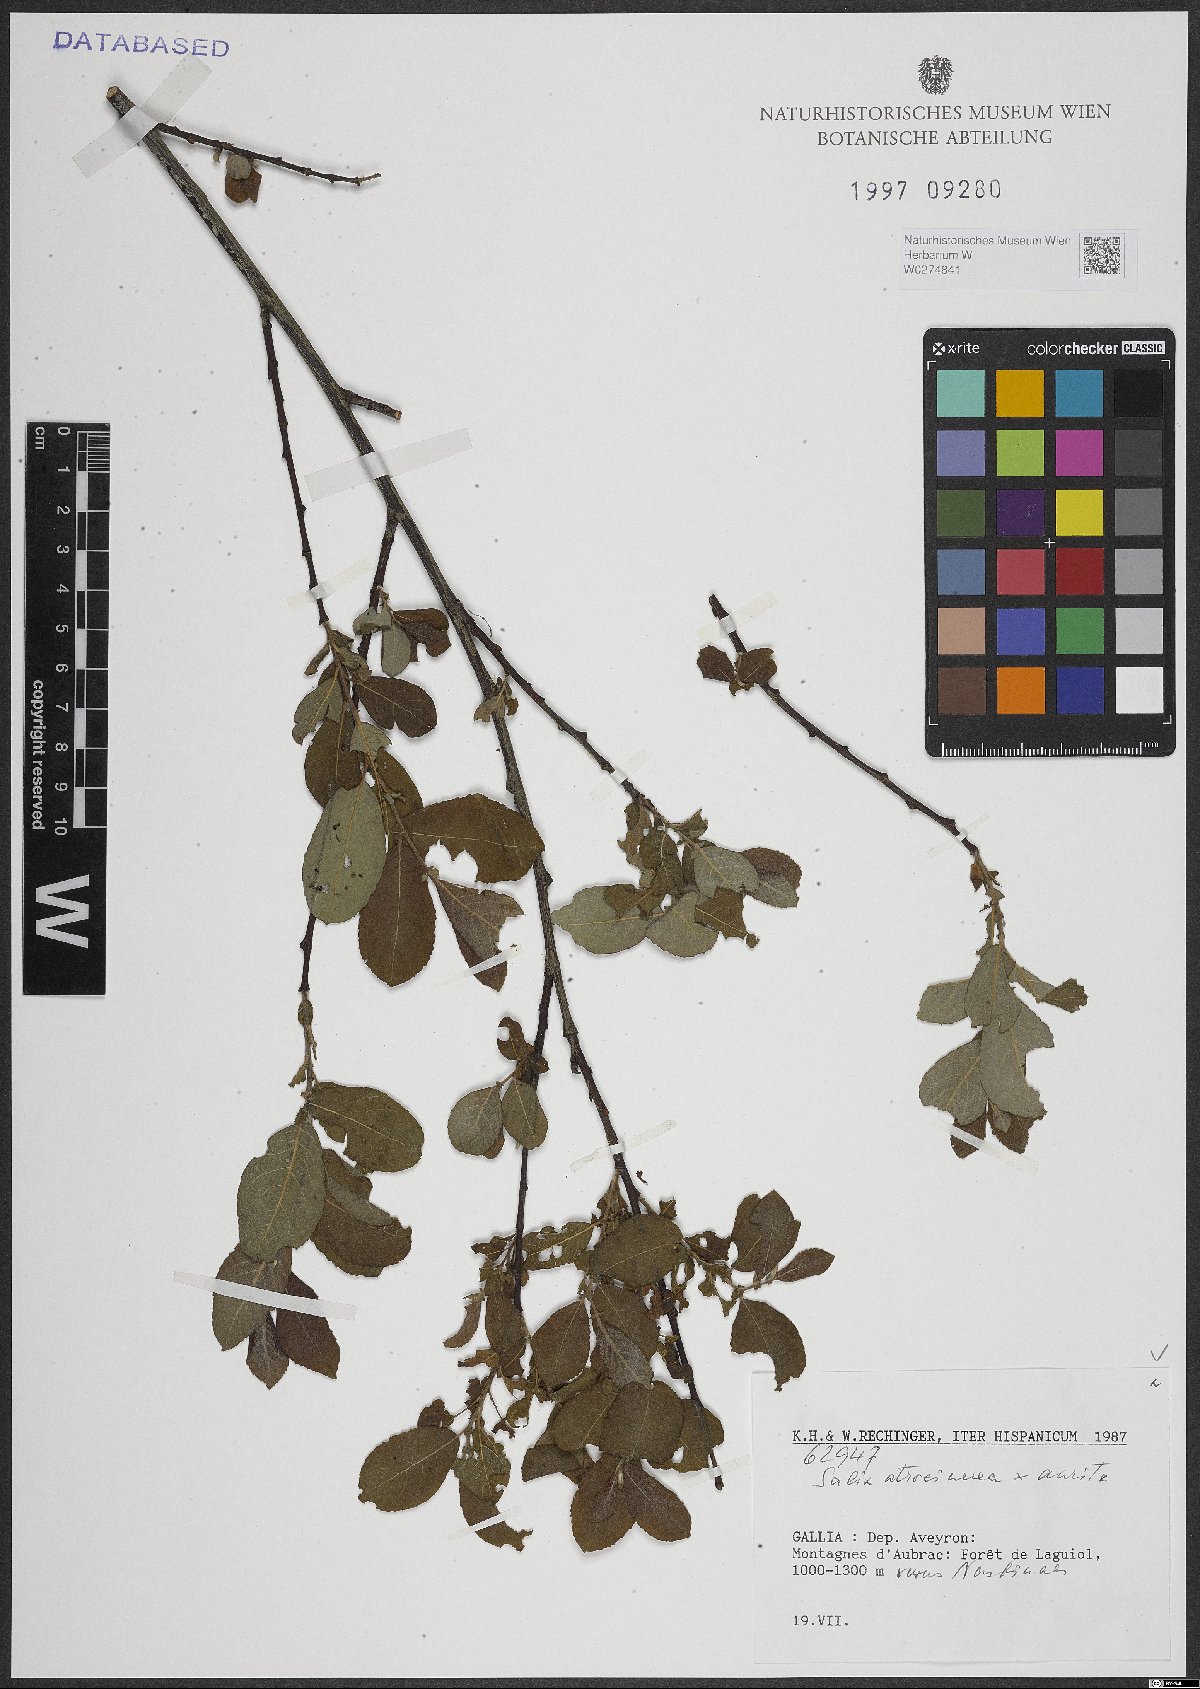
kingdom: Plantae
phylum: Tracheophyta
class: Magnoliopsida
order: Malpighiales
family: Salicaceae
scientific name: Salicaceae
